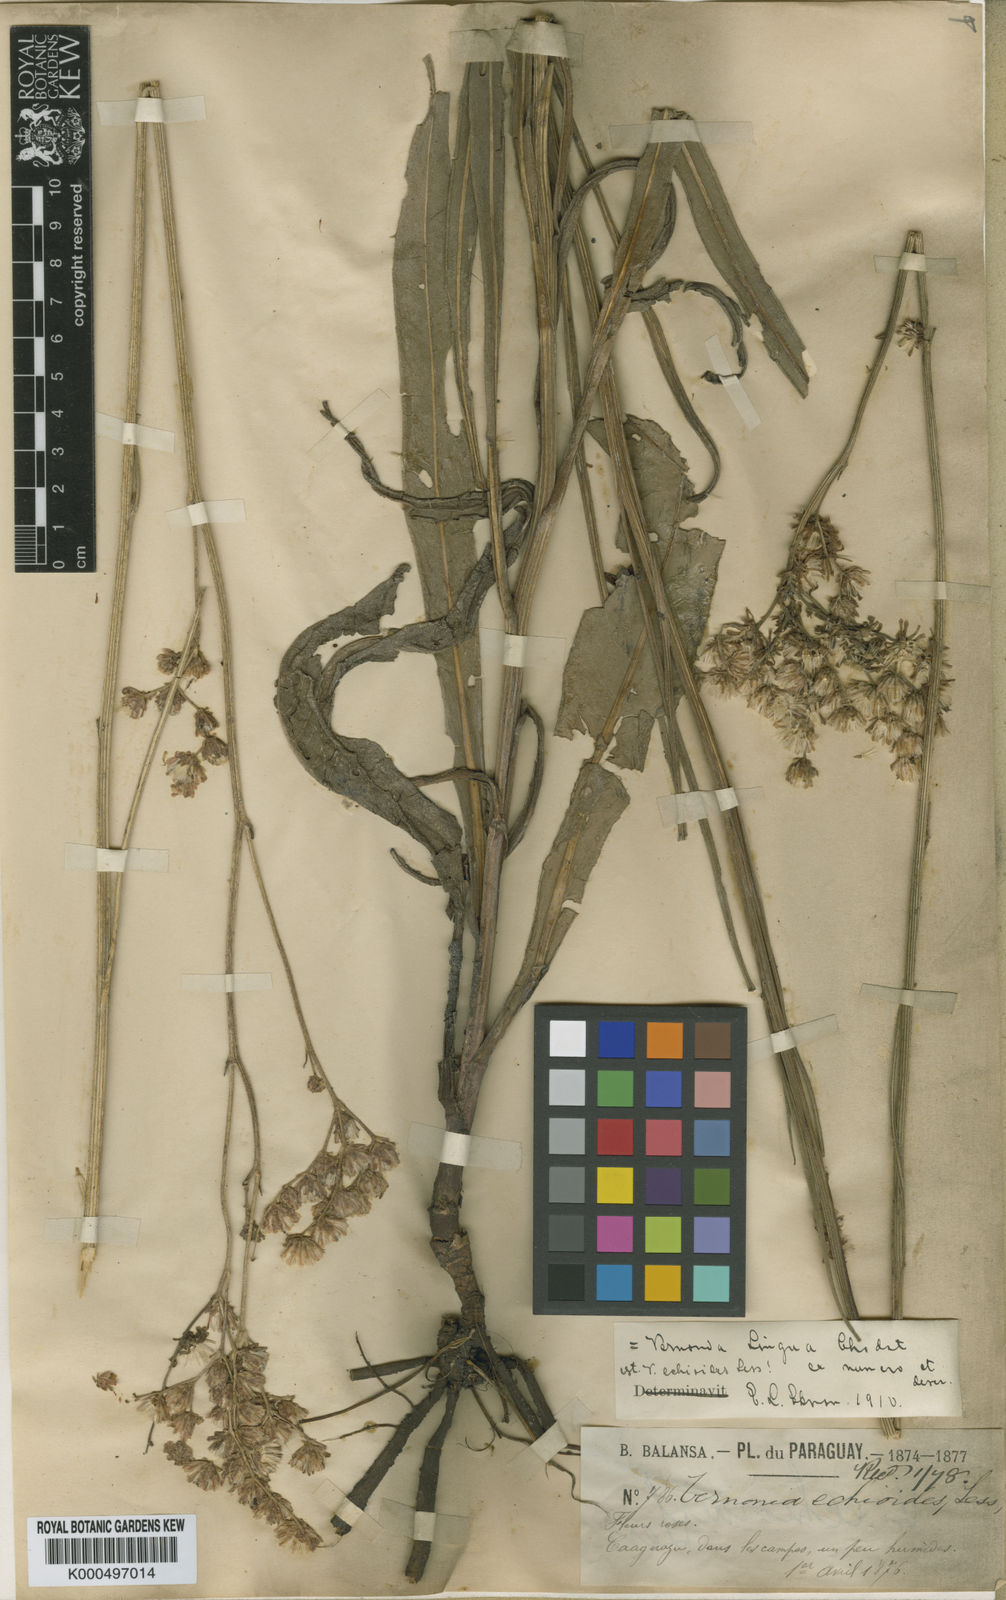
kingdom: Plantae
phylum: Tracheophyta
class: Magnoliopsida
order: Asterales
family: Asteraceae
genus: Vernonia
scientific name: Vernonia echioides
